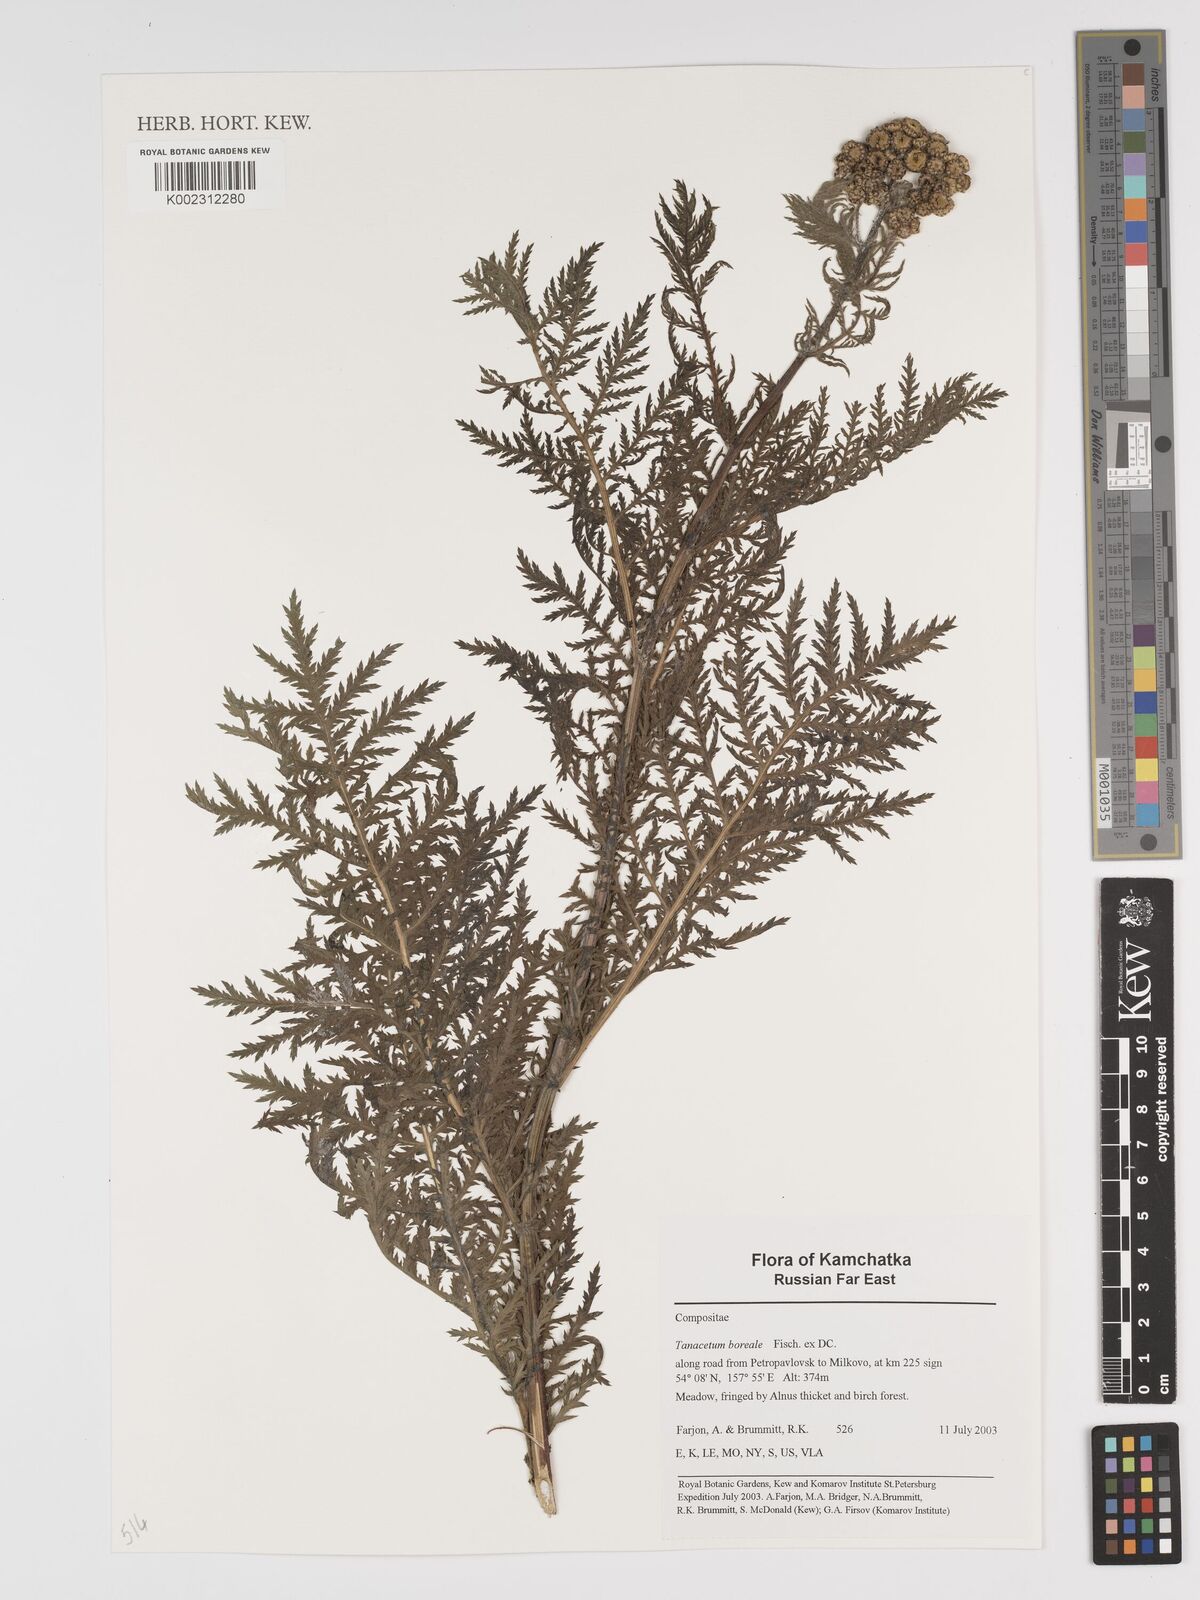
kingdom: Plantae
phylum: Tracheophyta
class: Magnoliopsida
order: Asterales
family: Asteraceae
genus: Tanacetum
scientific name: Tanacetum vulgare
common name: Common tansy
